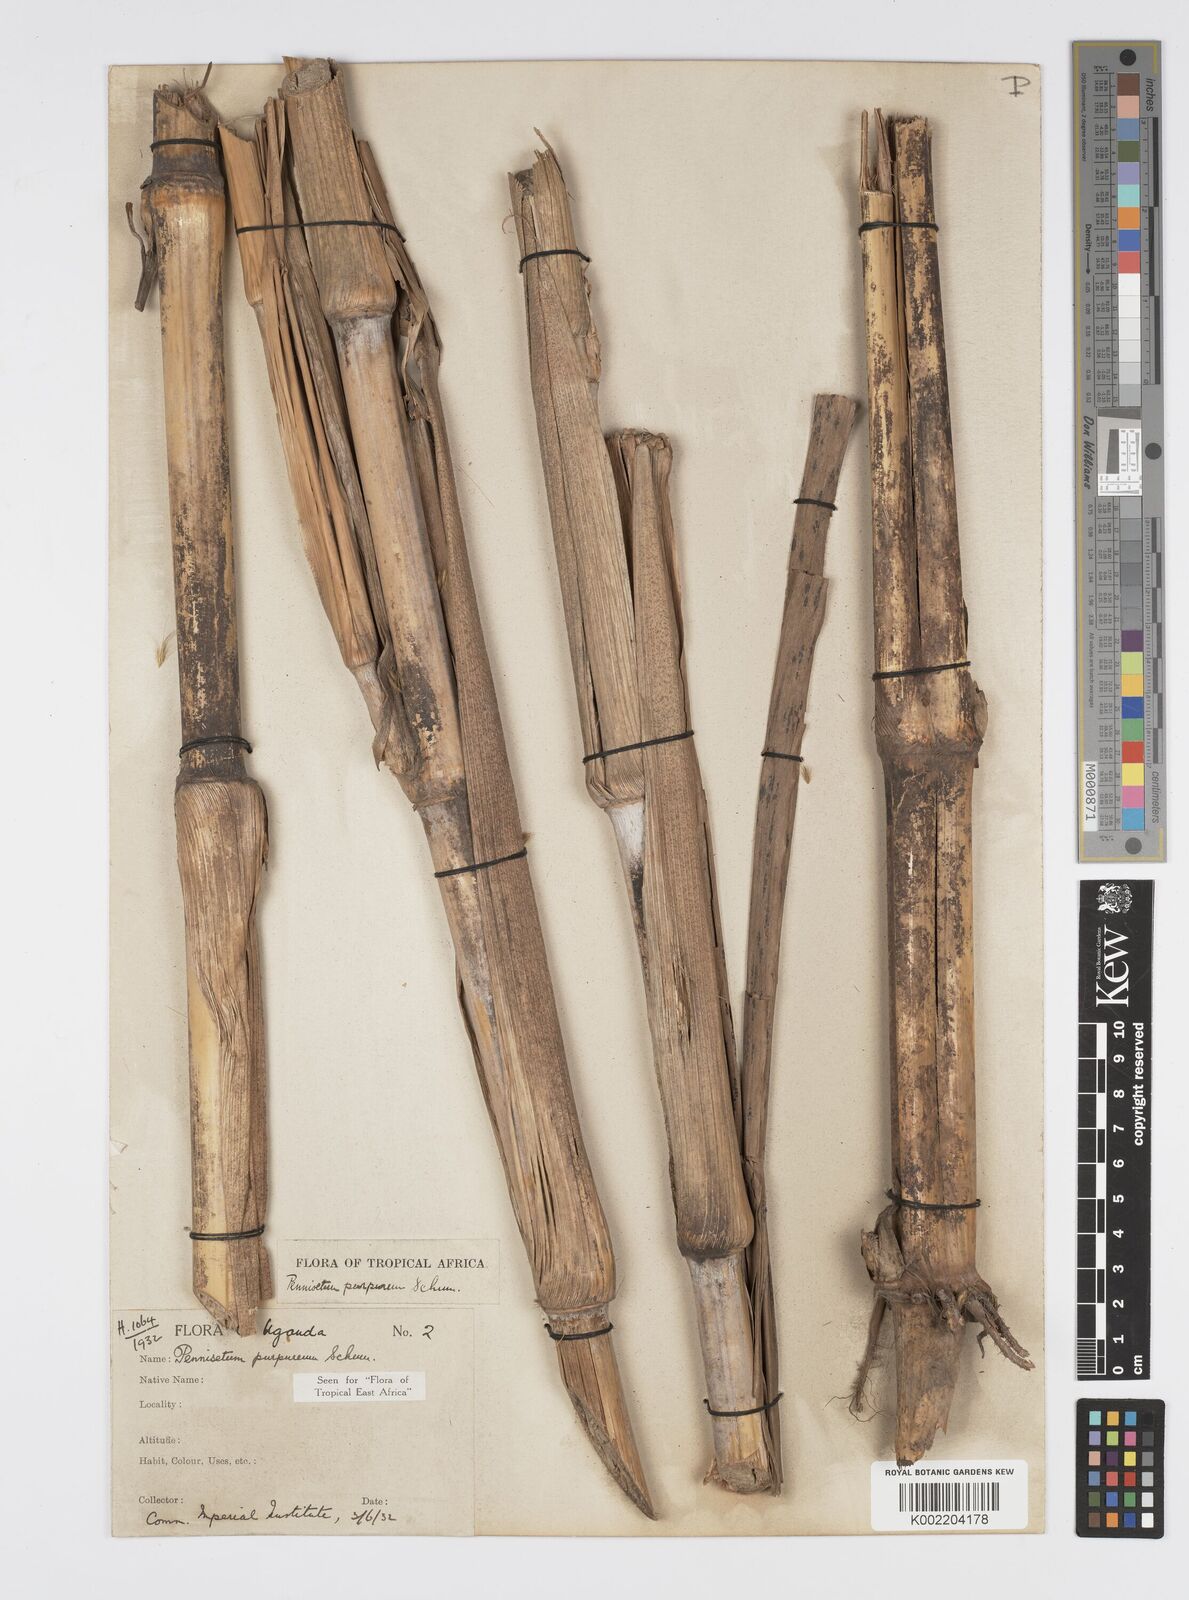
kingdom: Plantae
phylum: Tracheophyta
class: Liliopsida
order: Poales
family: Poaceae
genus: Cenchrus
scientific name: Cenchrus purpureus
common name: Elephant grass
